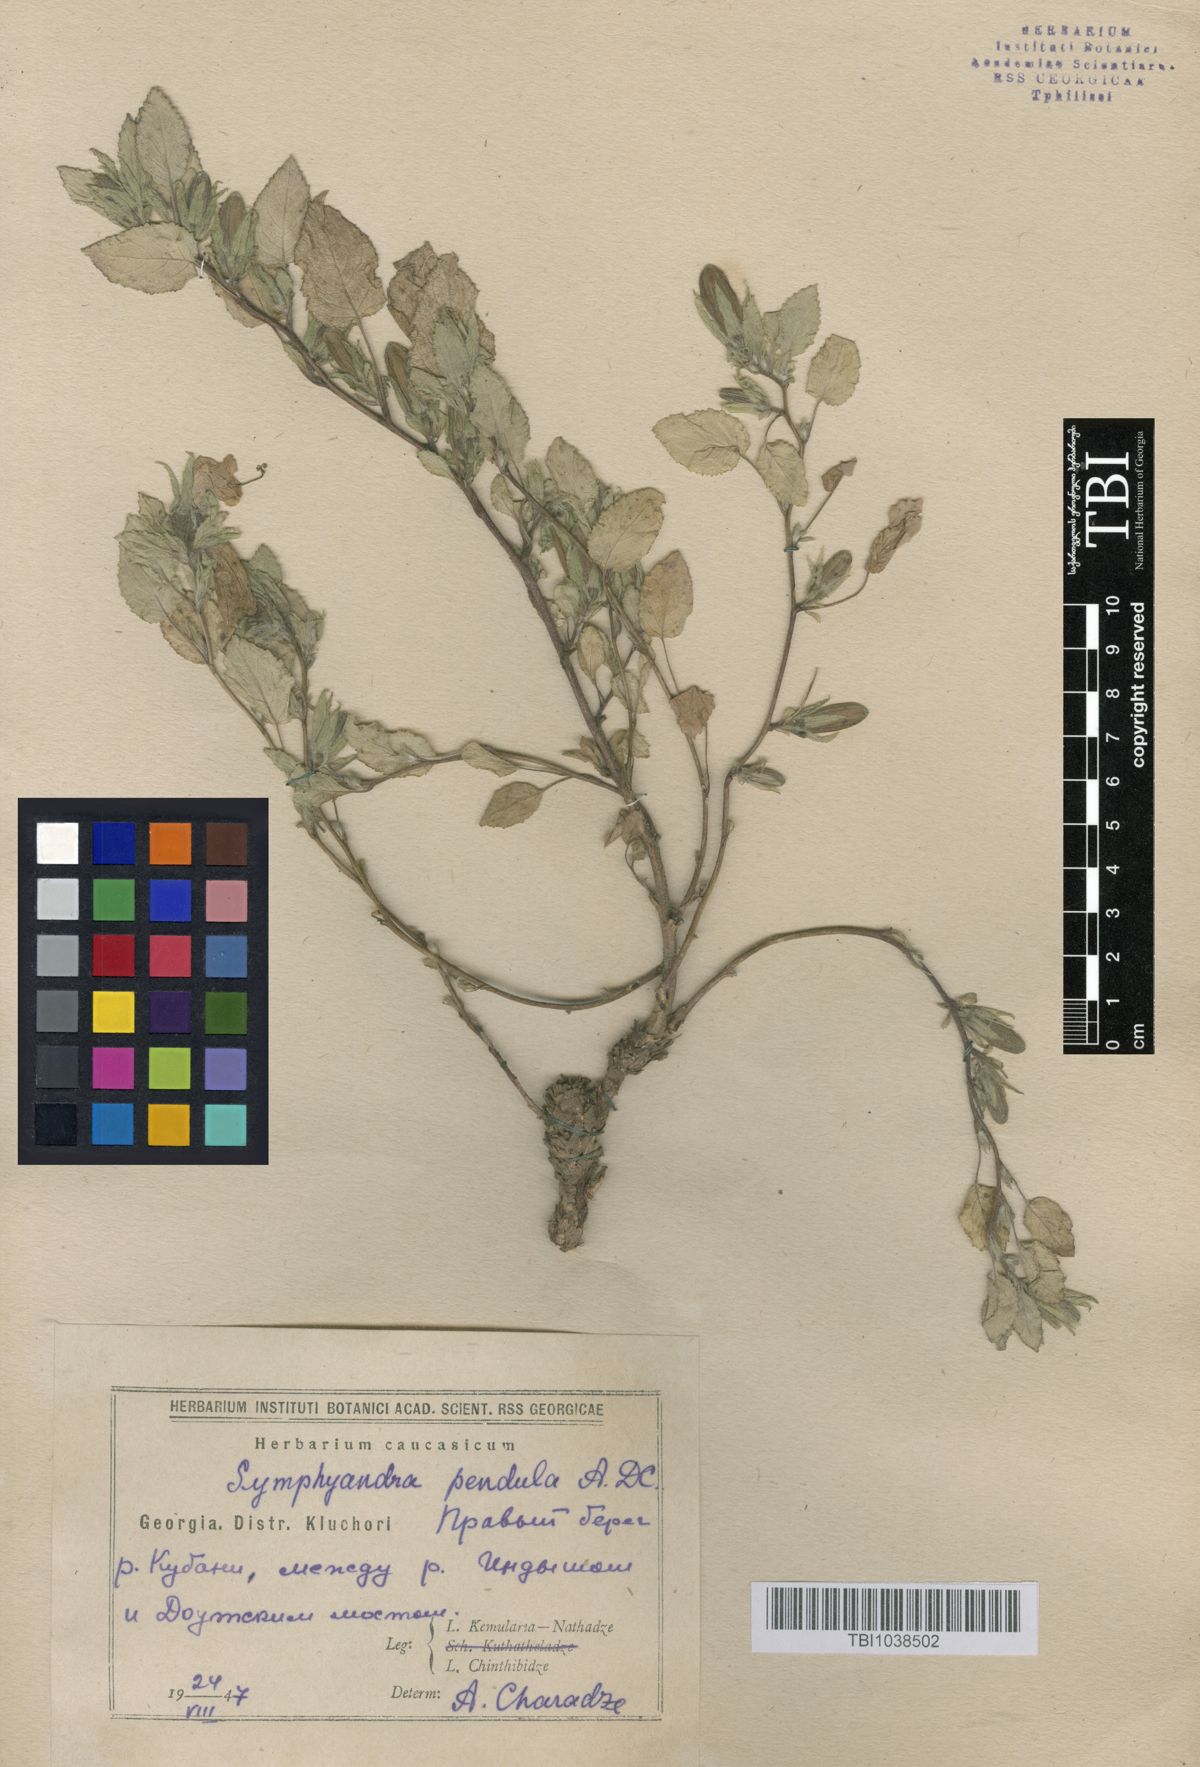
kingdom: Plantae
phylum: Tracheophyta
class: Magnoliopsida
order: Asterales
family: Campanulaceae
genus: Campanula
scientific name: Campanula pendula
